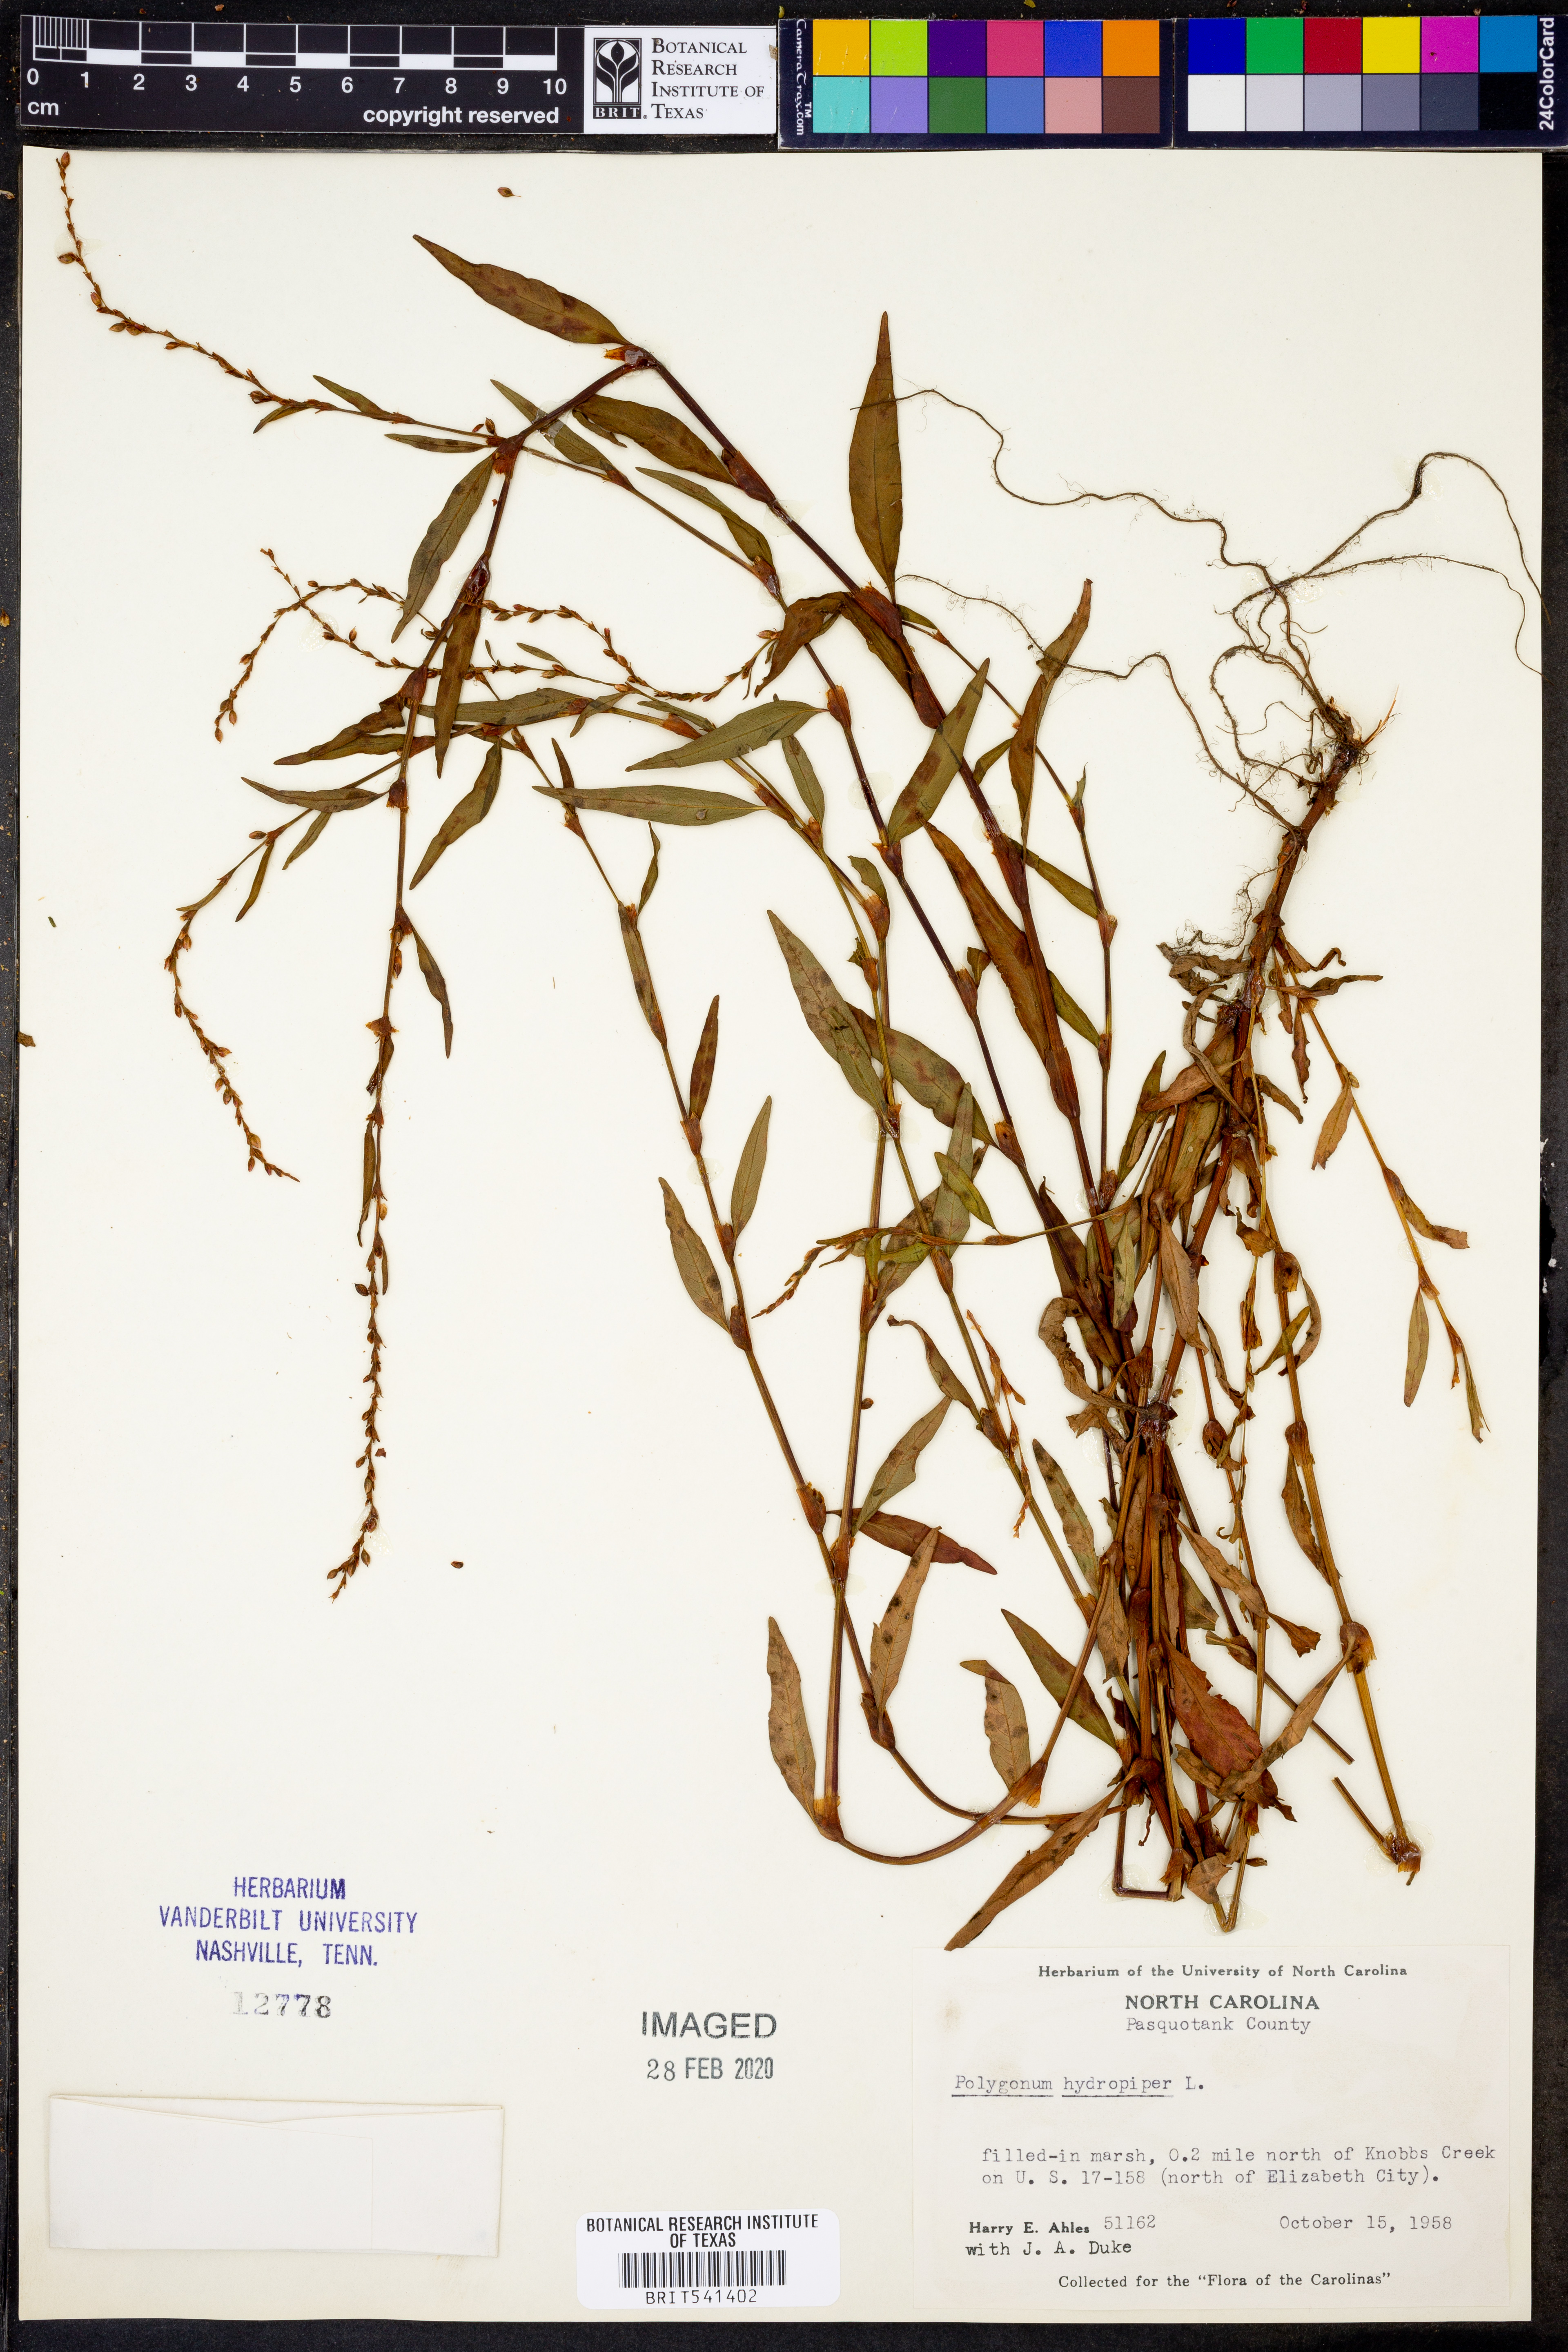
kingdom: Plantae
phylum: Tracheophyta
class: Magnoliopsida
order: Caryophyllales
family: Polygonaceae
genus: Persicaria
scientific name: Persicaria hydropiper
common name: Water-pepper
